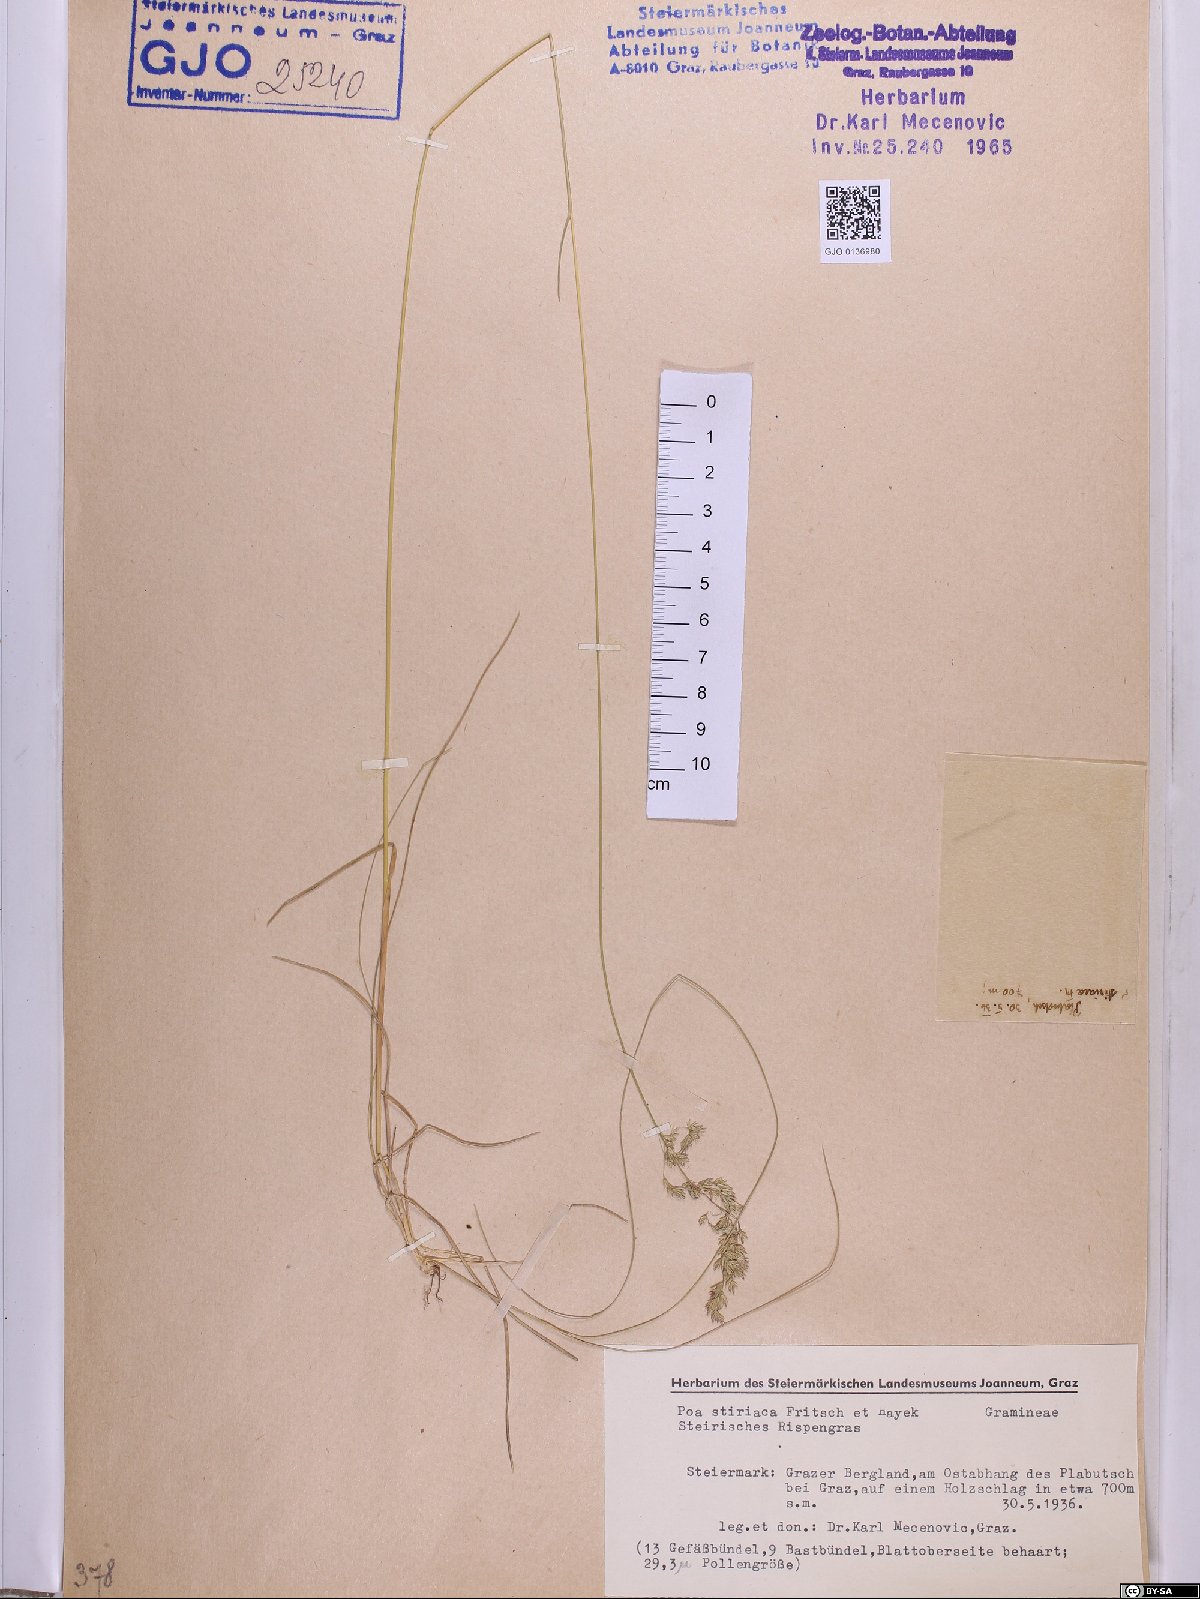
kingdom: Plantae
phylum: Tracheophyta
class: Liliopsida
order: Poales
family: Poaceae
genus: Poa
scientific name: Poa stiriaca
